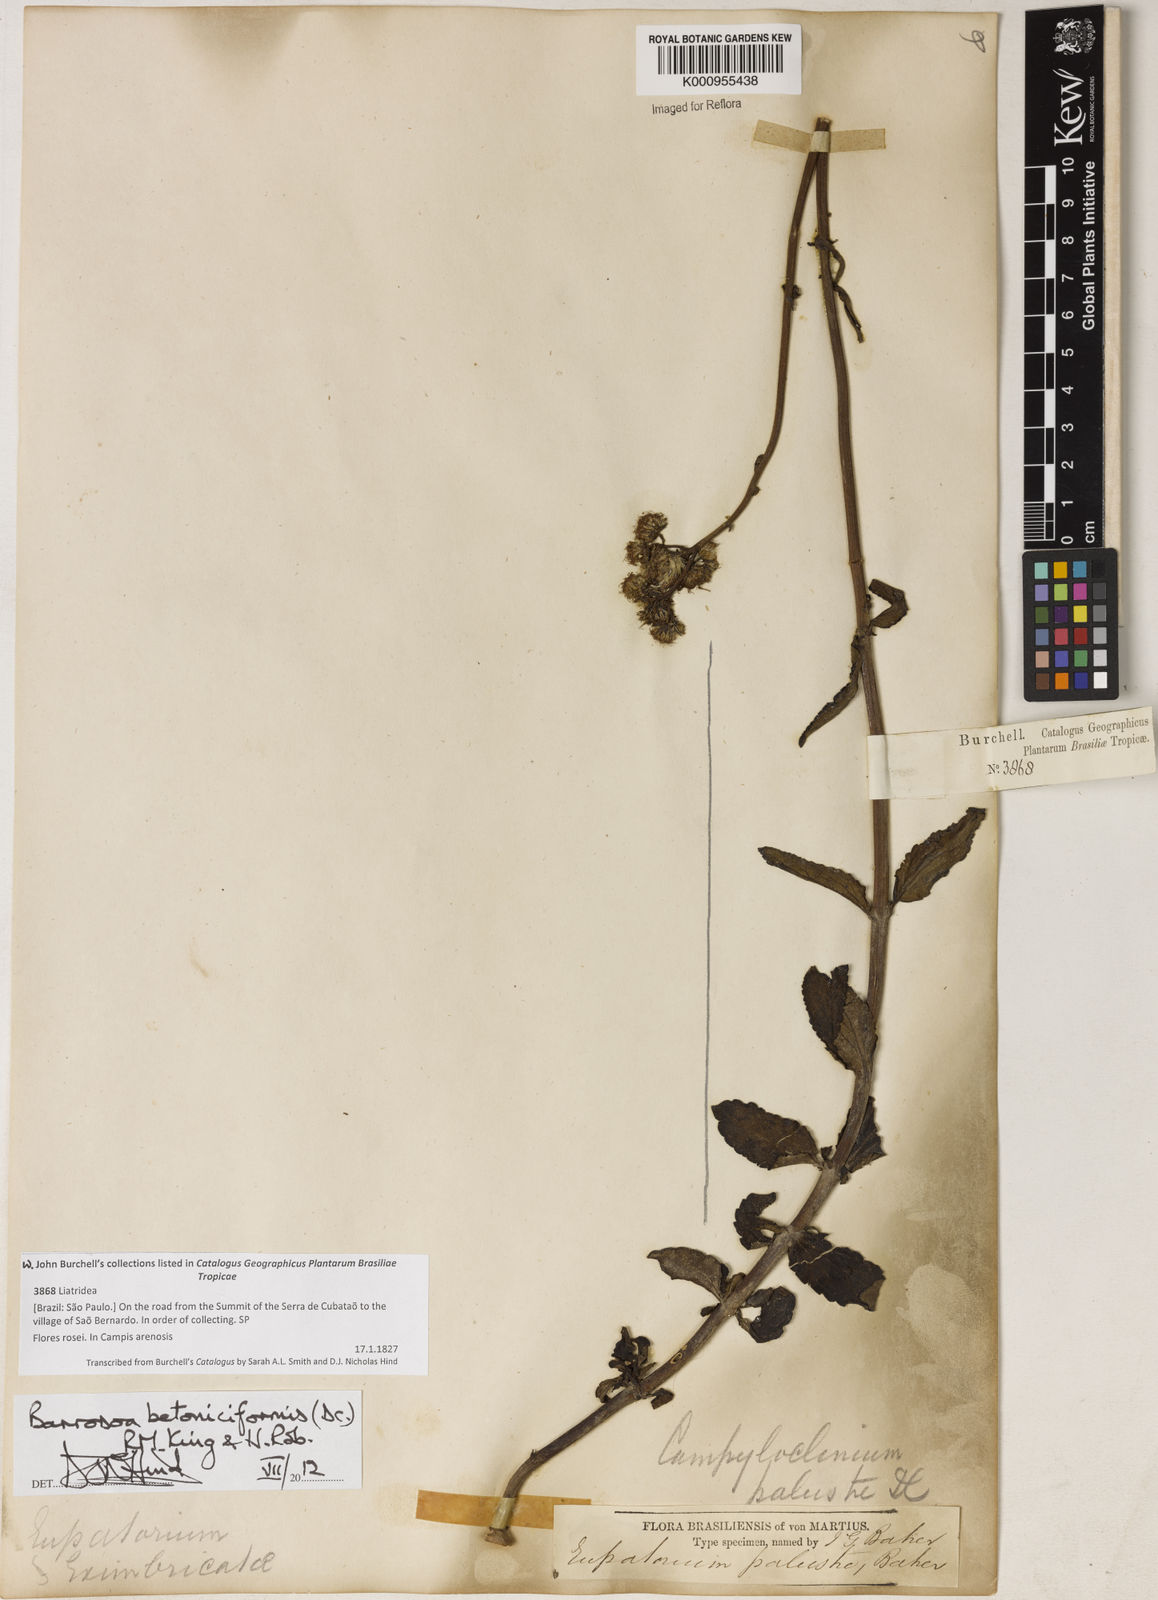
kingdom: Plantae
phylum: Tracheophyta
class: Magnoliopsida
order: Asterales
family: Asteraceae
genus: Barrosoa
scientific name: Barrosoa betoniciformis
